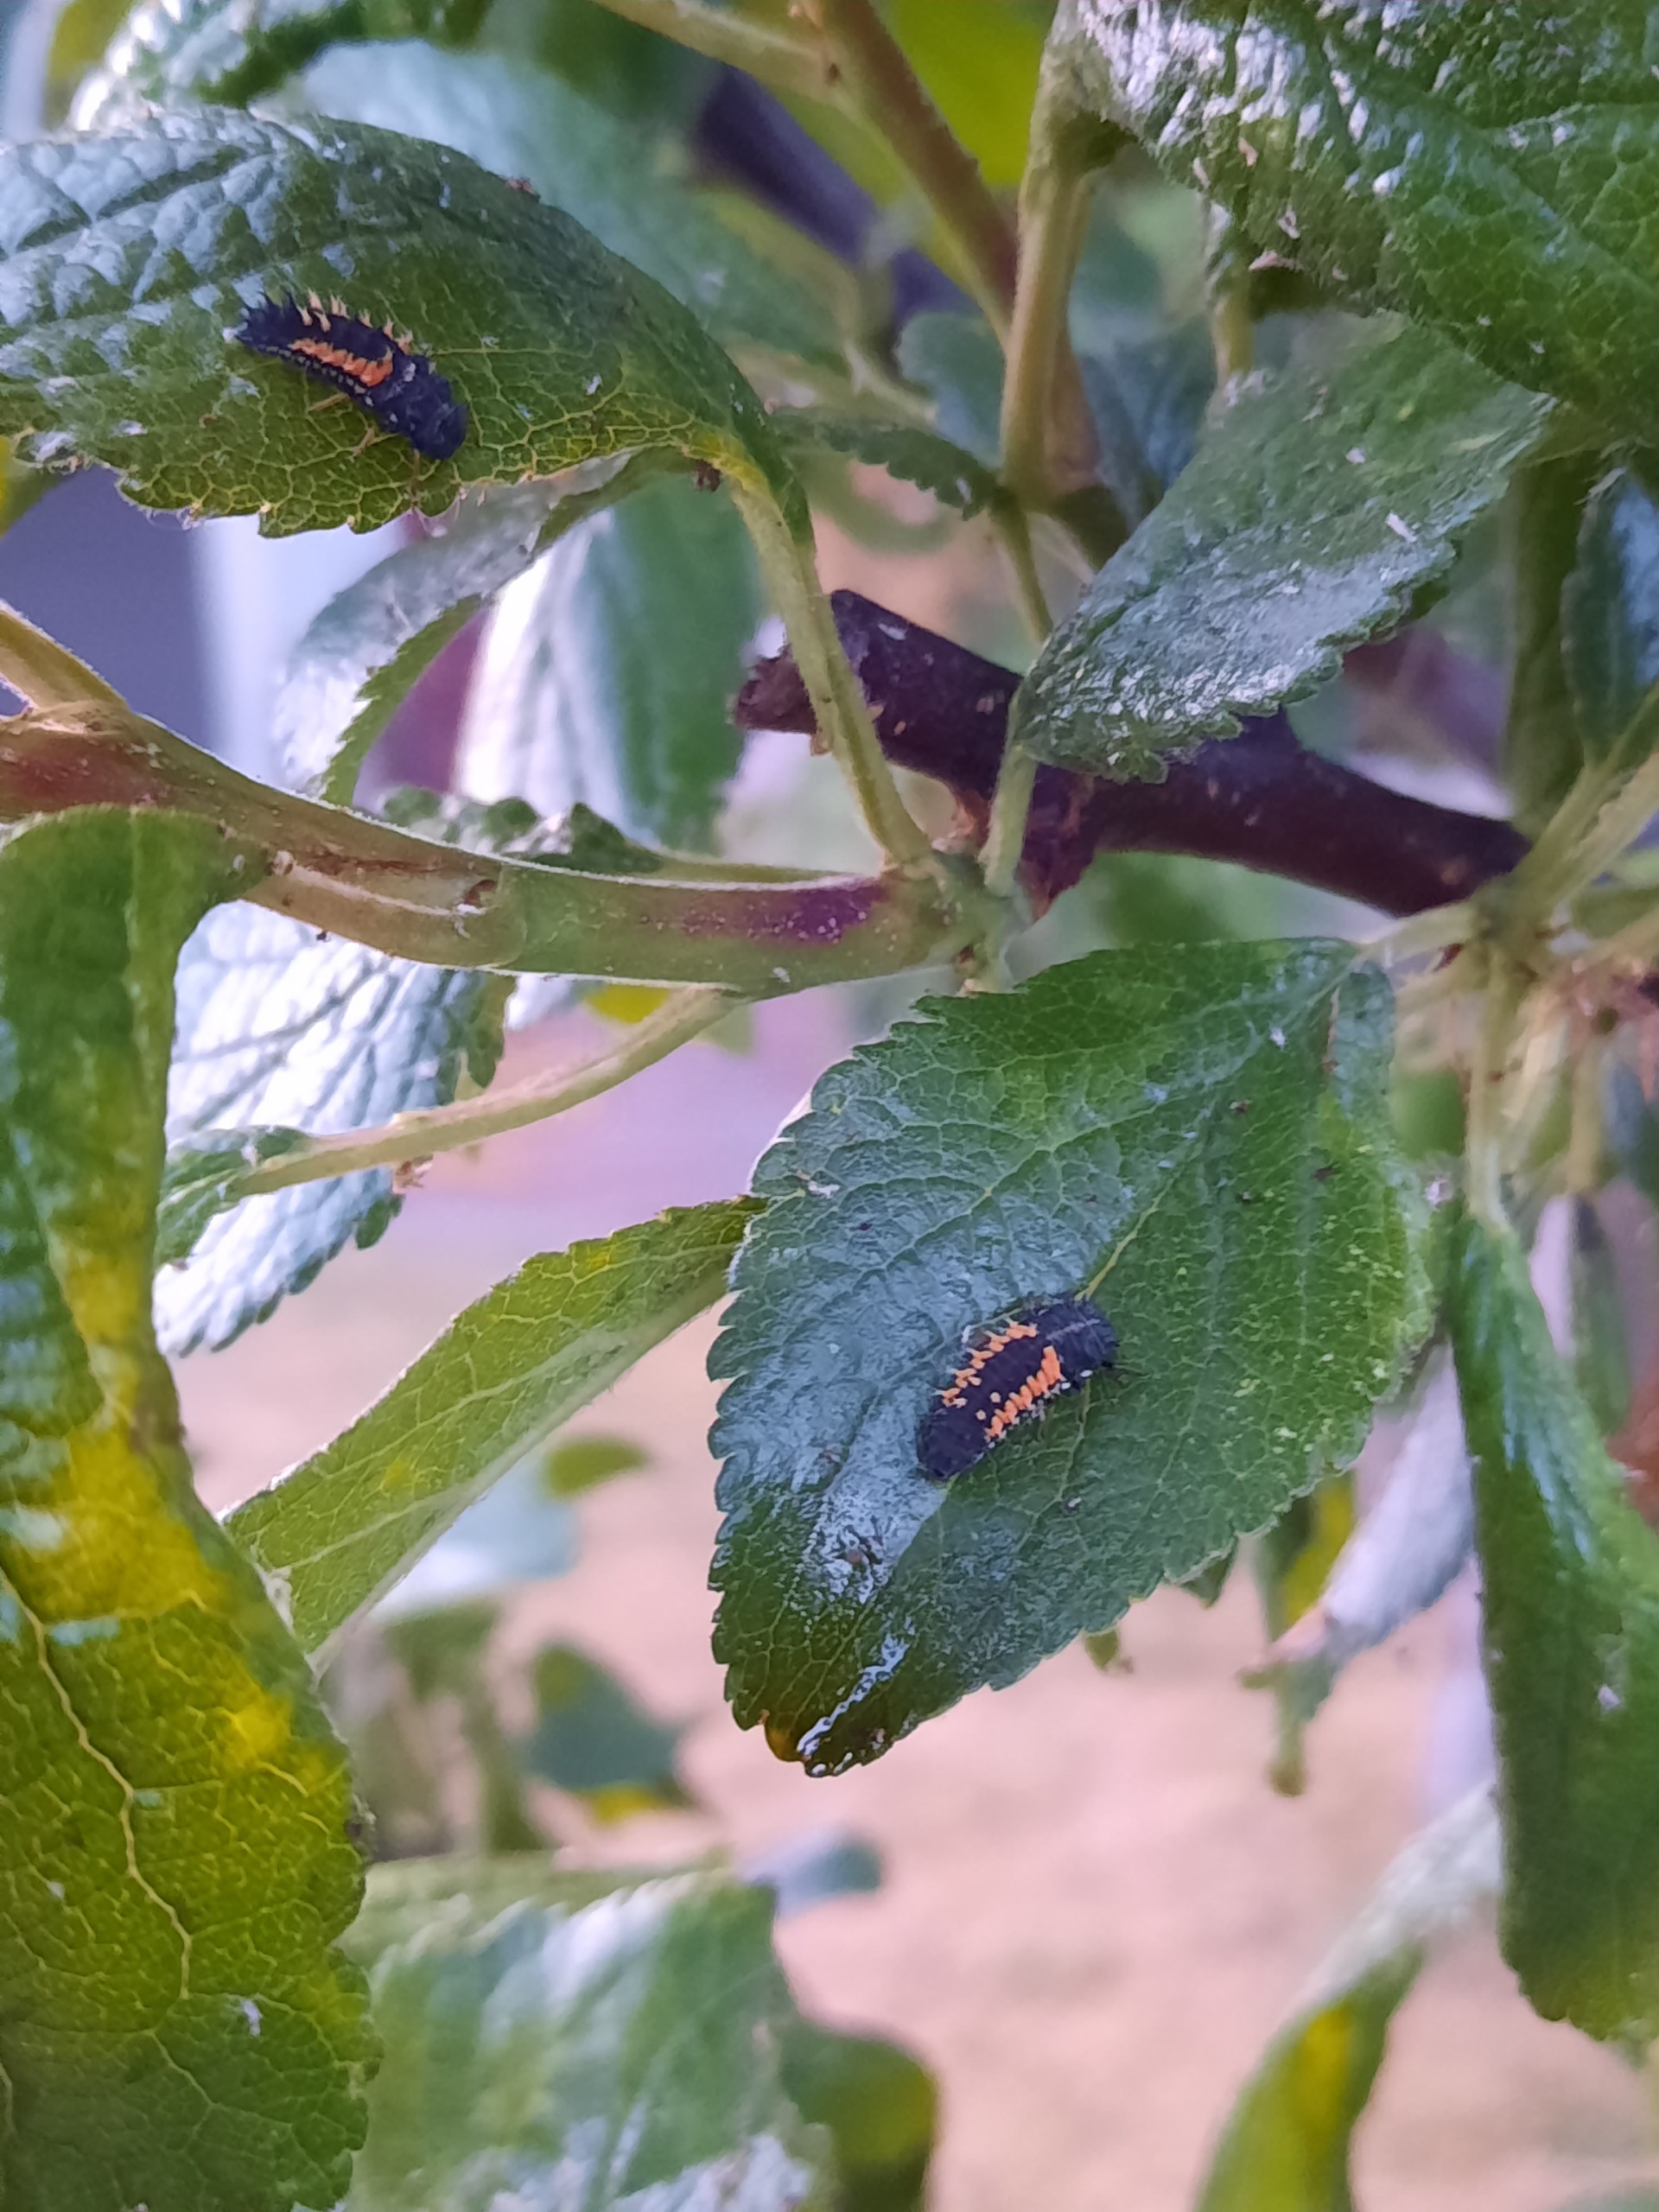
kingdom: Animalia
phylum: Arthropoda
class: Insecta
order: Coleoptera
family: Coccinellidae
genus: Harmonia
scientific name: Harmonia axyridis
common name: Harlekinmariehøne
